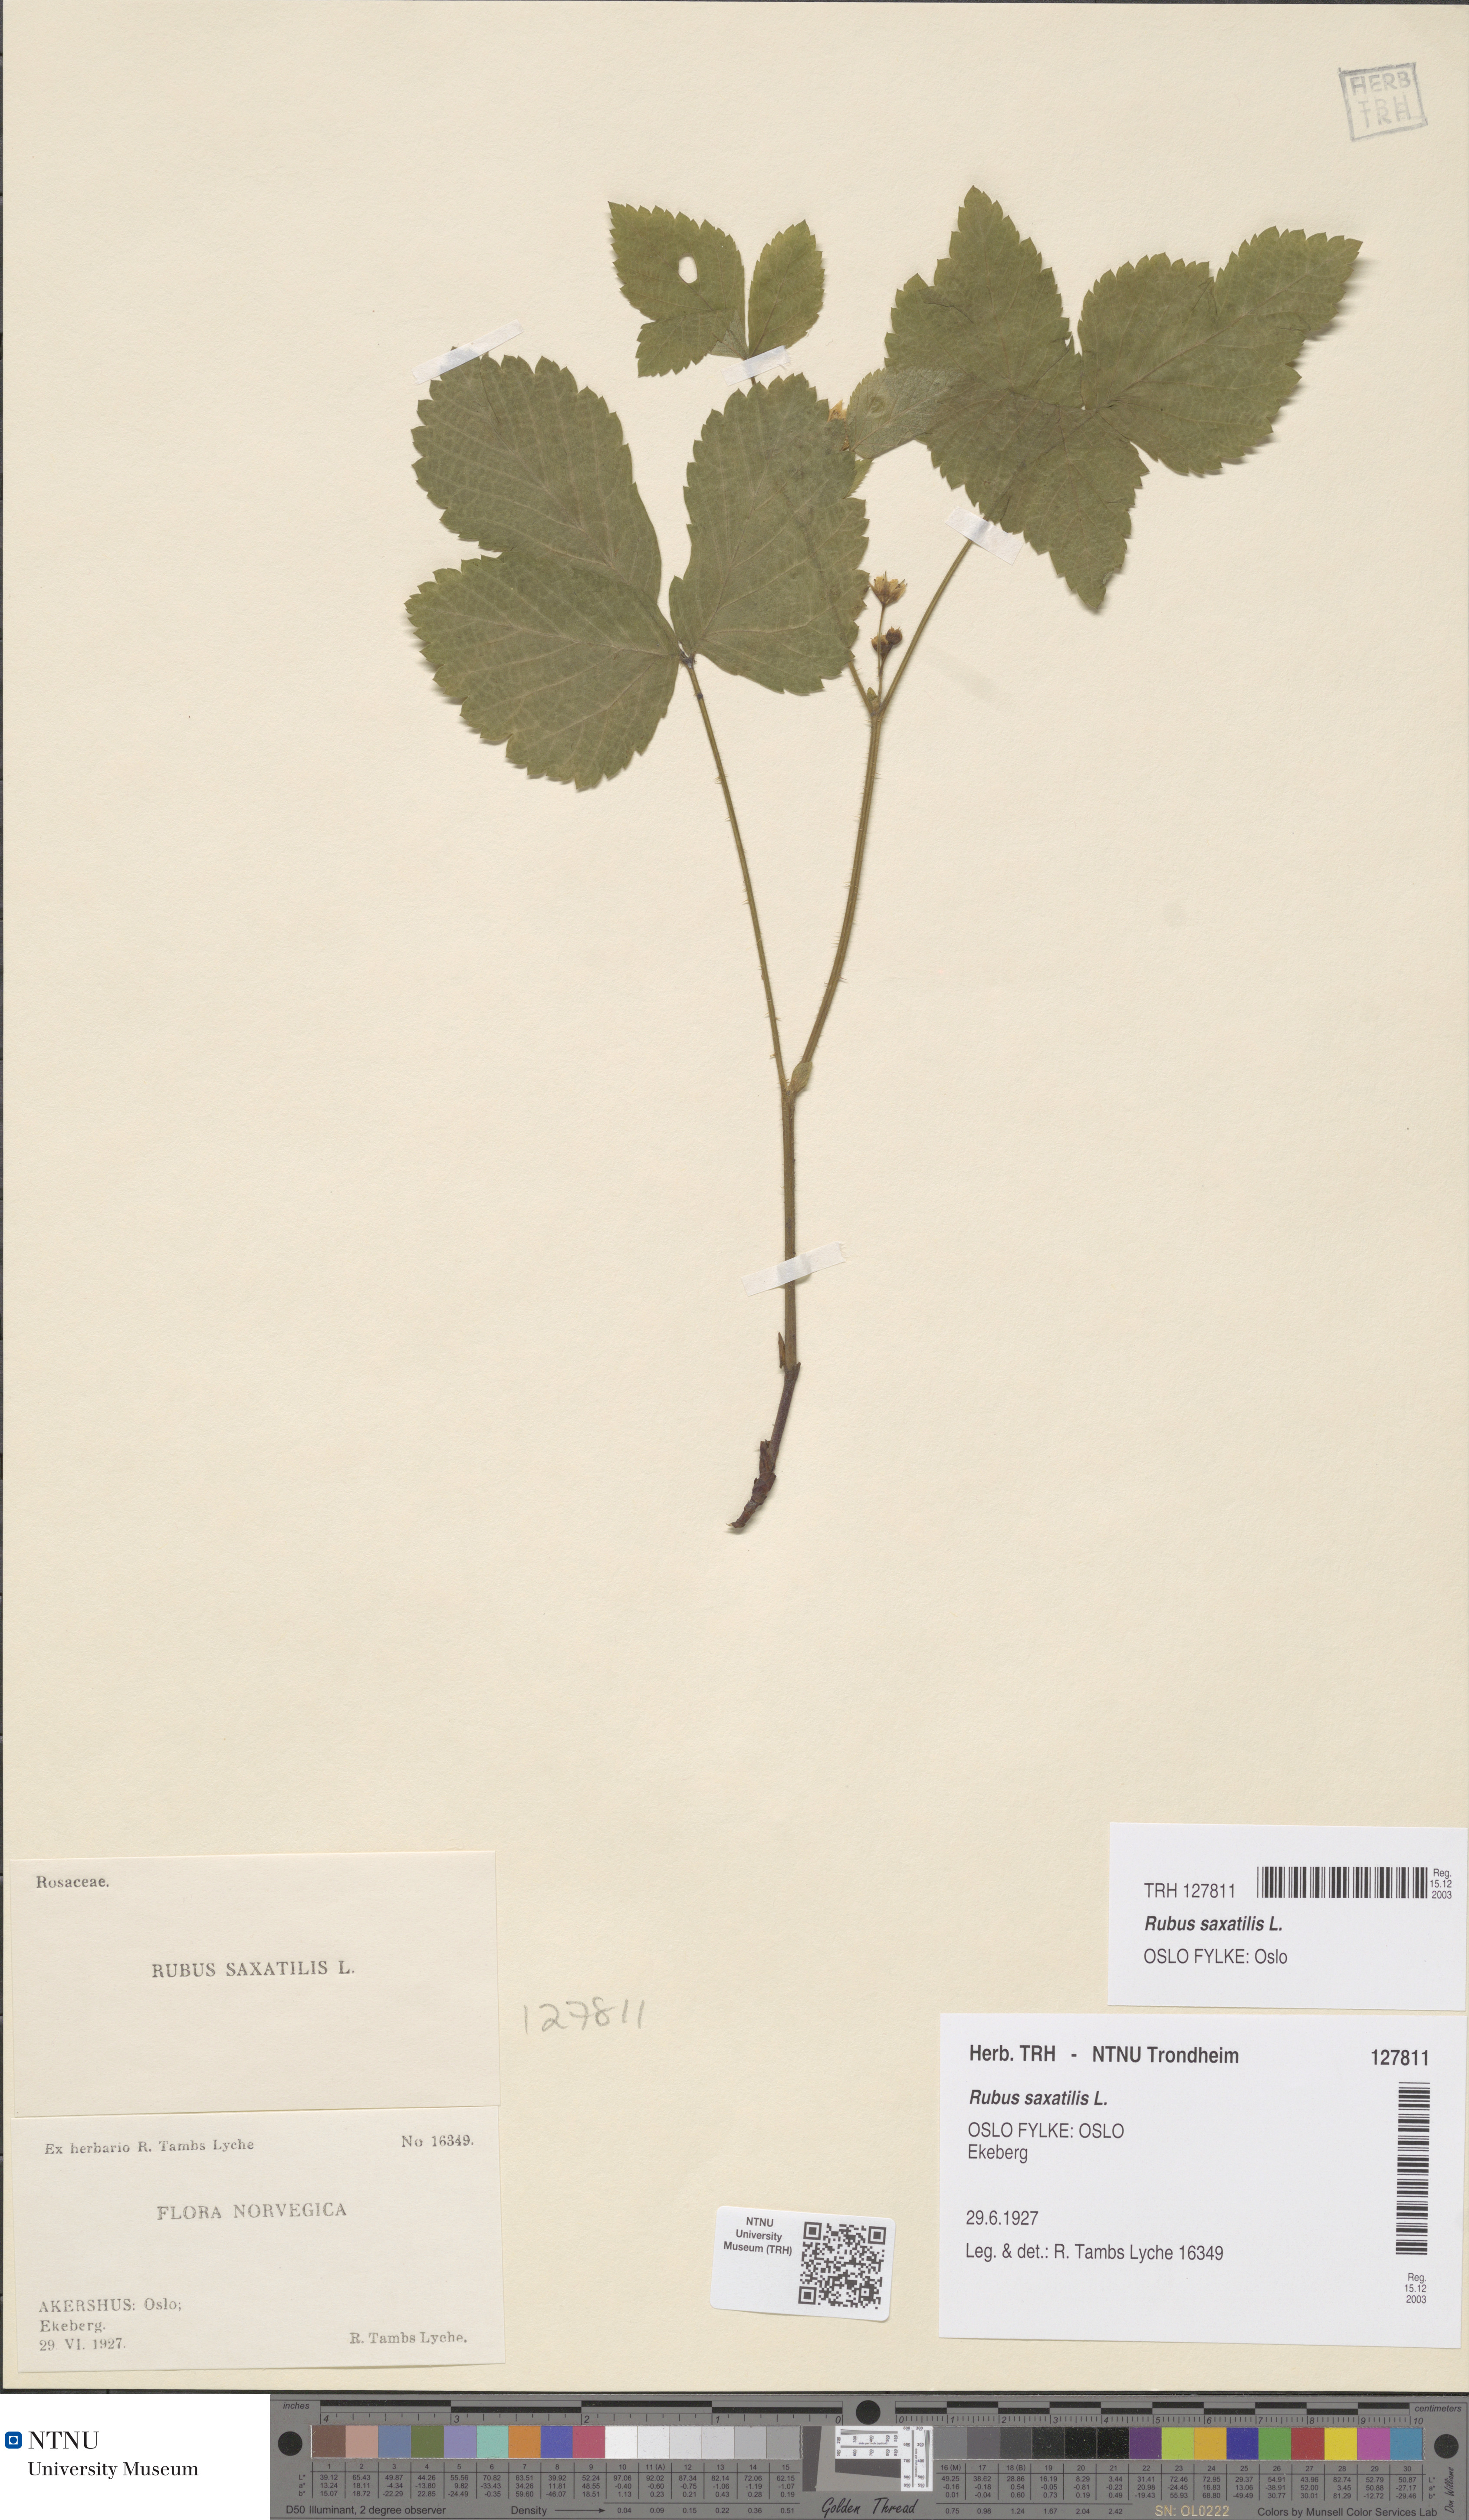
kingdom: Plantae
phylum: Tracheophyta
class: Magnoliopsida
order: Rosales
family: Rosaceae
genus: Rubus
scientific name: Rubus saxatilis
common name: Stone bramble
